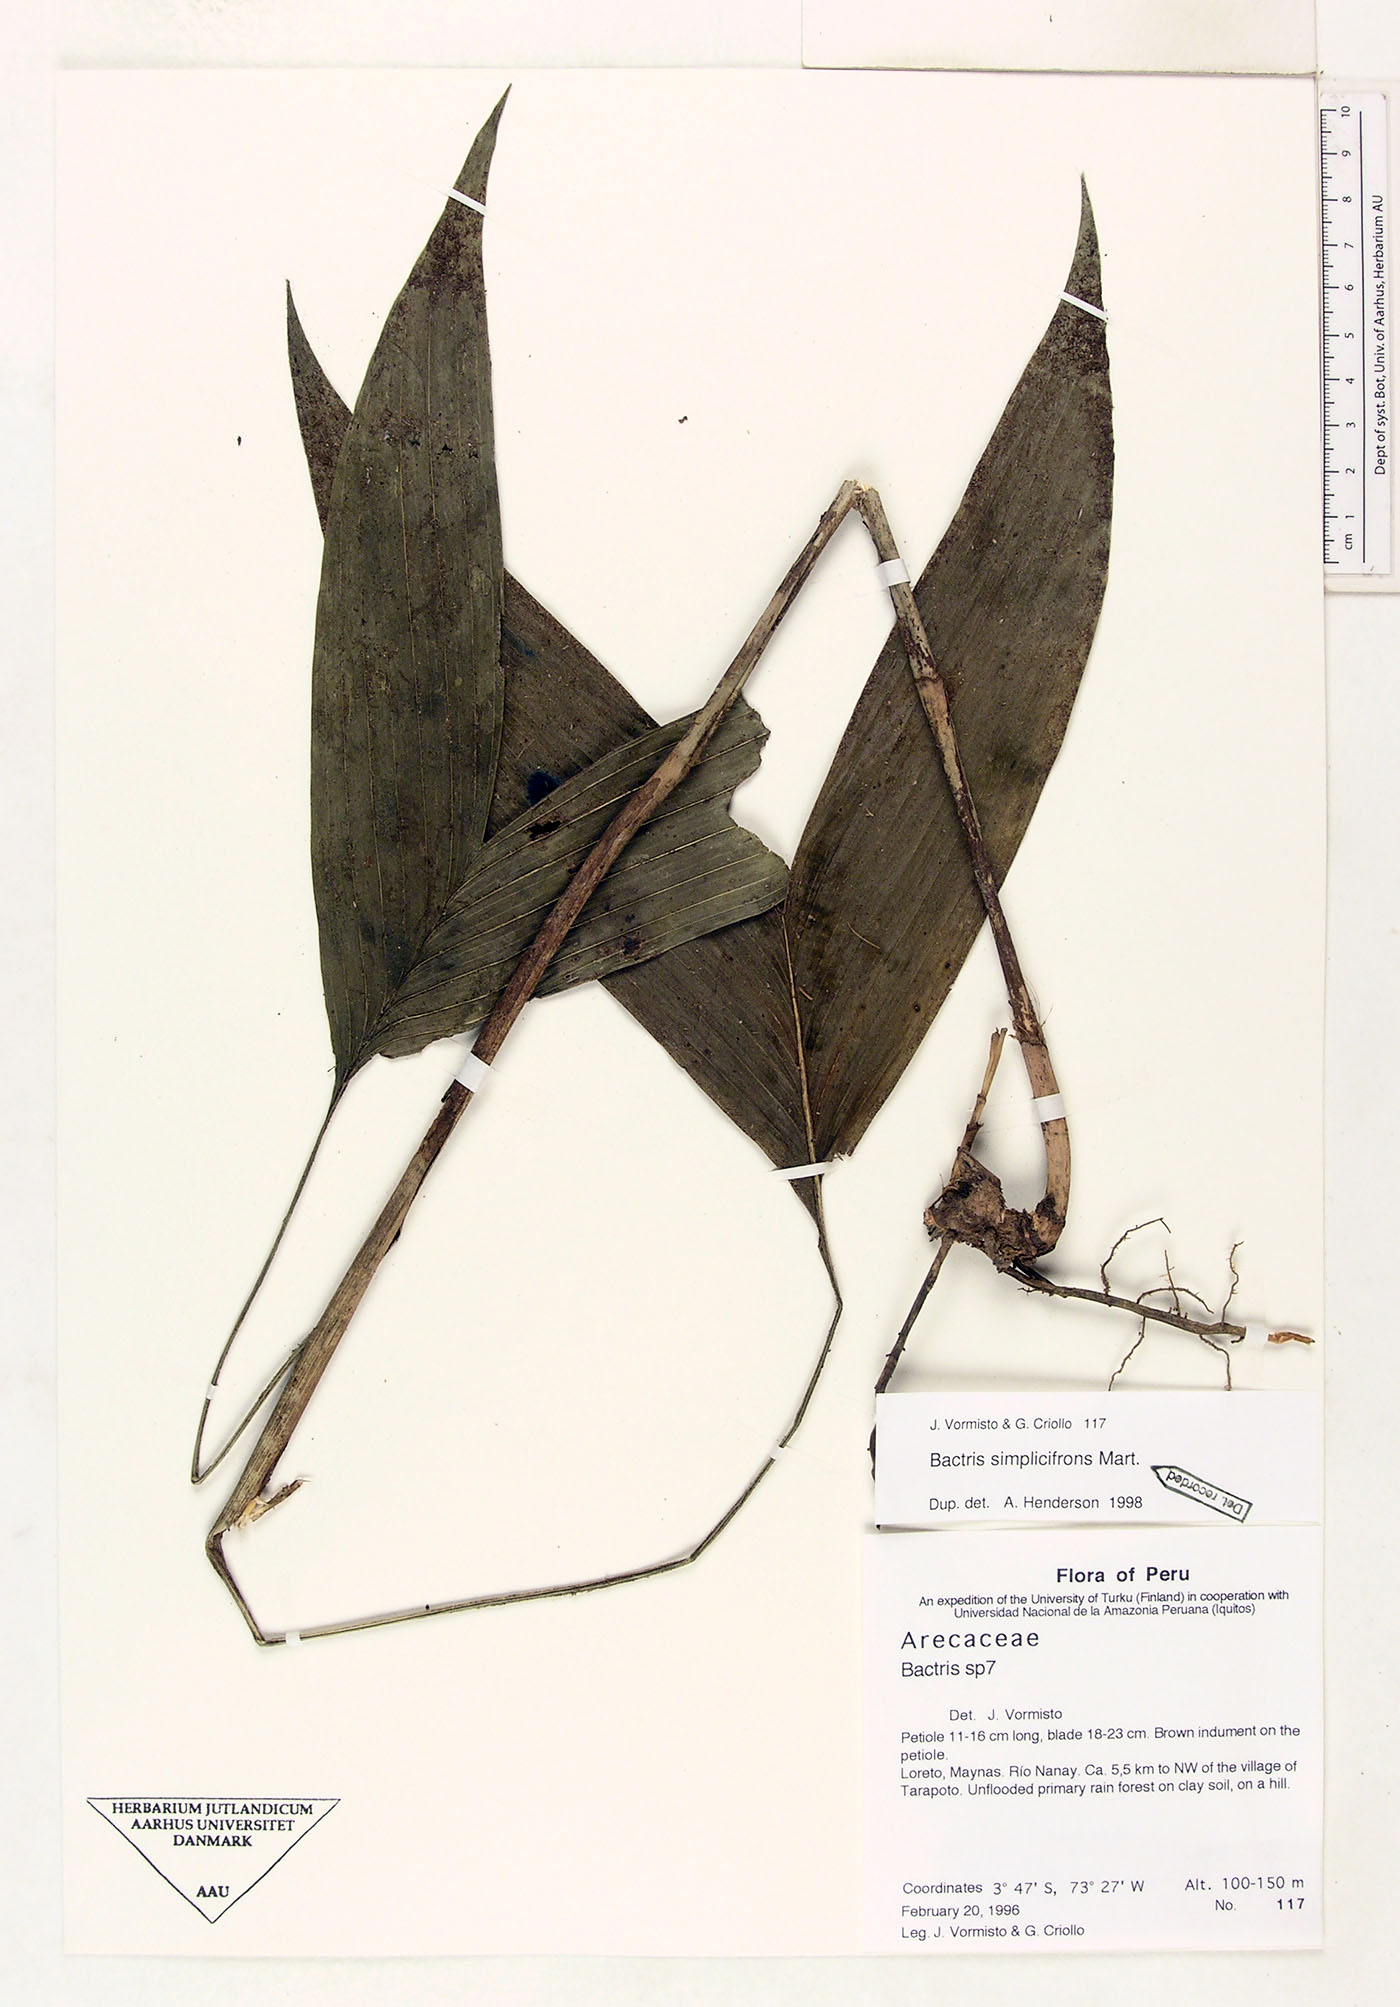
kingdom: Plantae
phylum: Tracheophyta
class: Liliopsida
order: Arecales
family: Arecaceae
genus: Bactris
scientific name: Bactris simplicifrons
